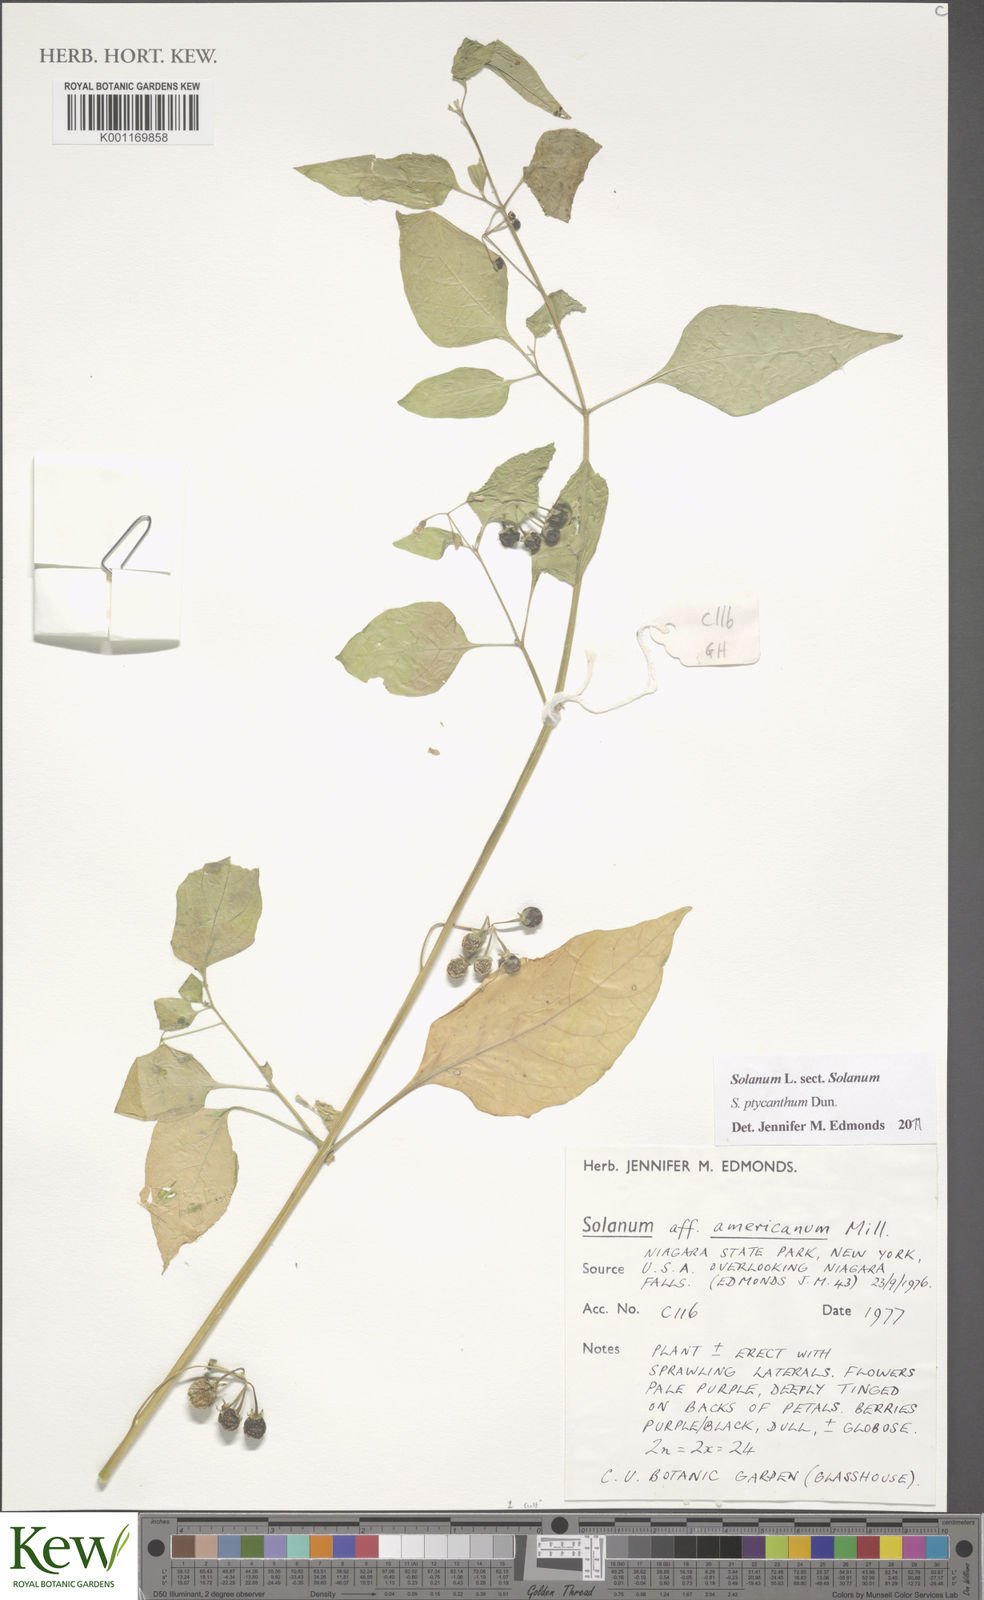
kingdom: Plantae
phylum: Tracheophyta
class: Magnoliopsida
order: Solanales
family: Solanaceae
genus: Solanum
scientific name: Solanum americanum
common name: American black nightshade
